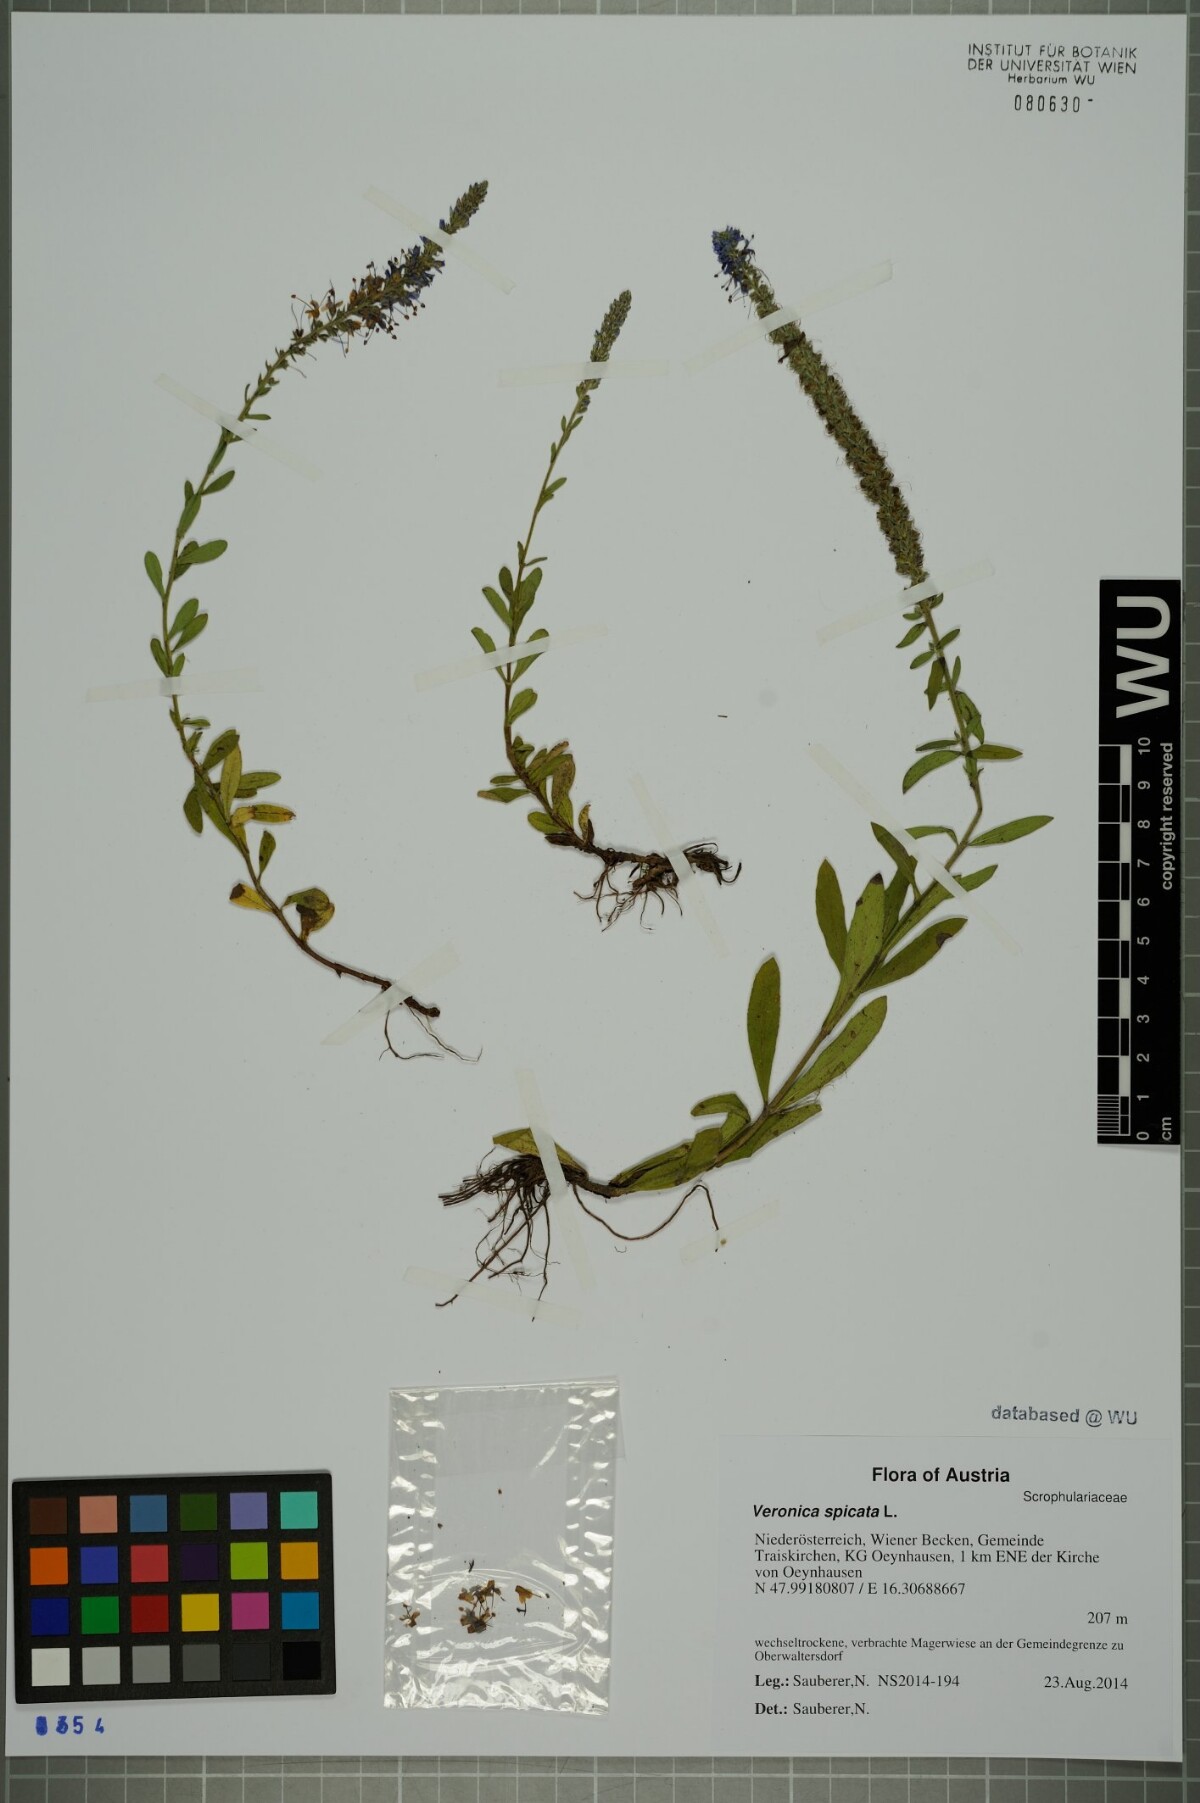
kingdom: Plantae
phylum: Tracheophyta
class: Magnoliopsida
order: Lamiales
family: Plantaginaceae
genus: Veronica
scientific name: Veronica spicata
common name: Spiked speedwell
